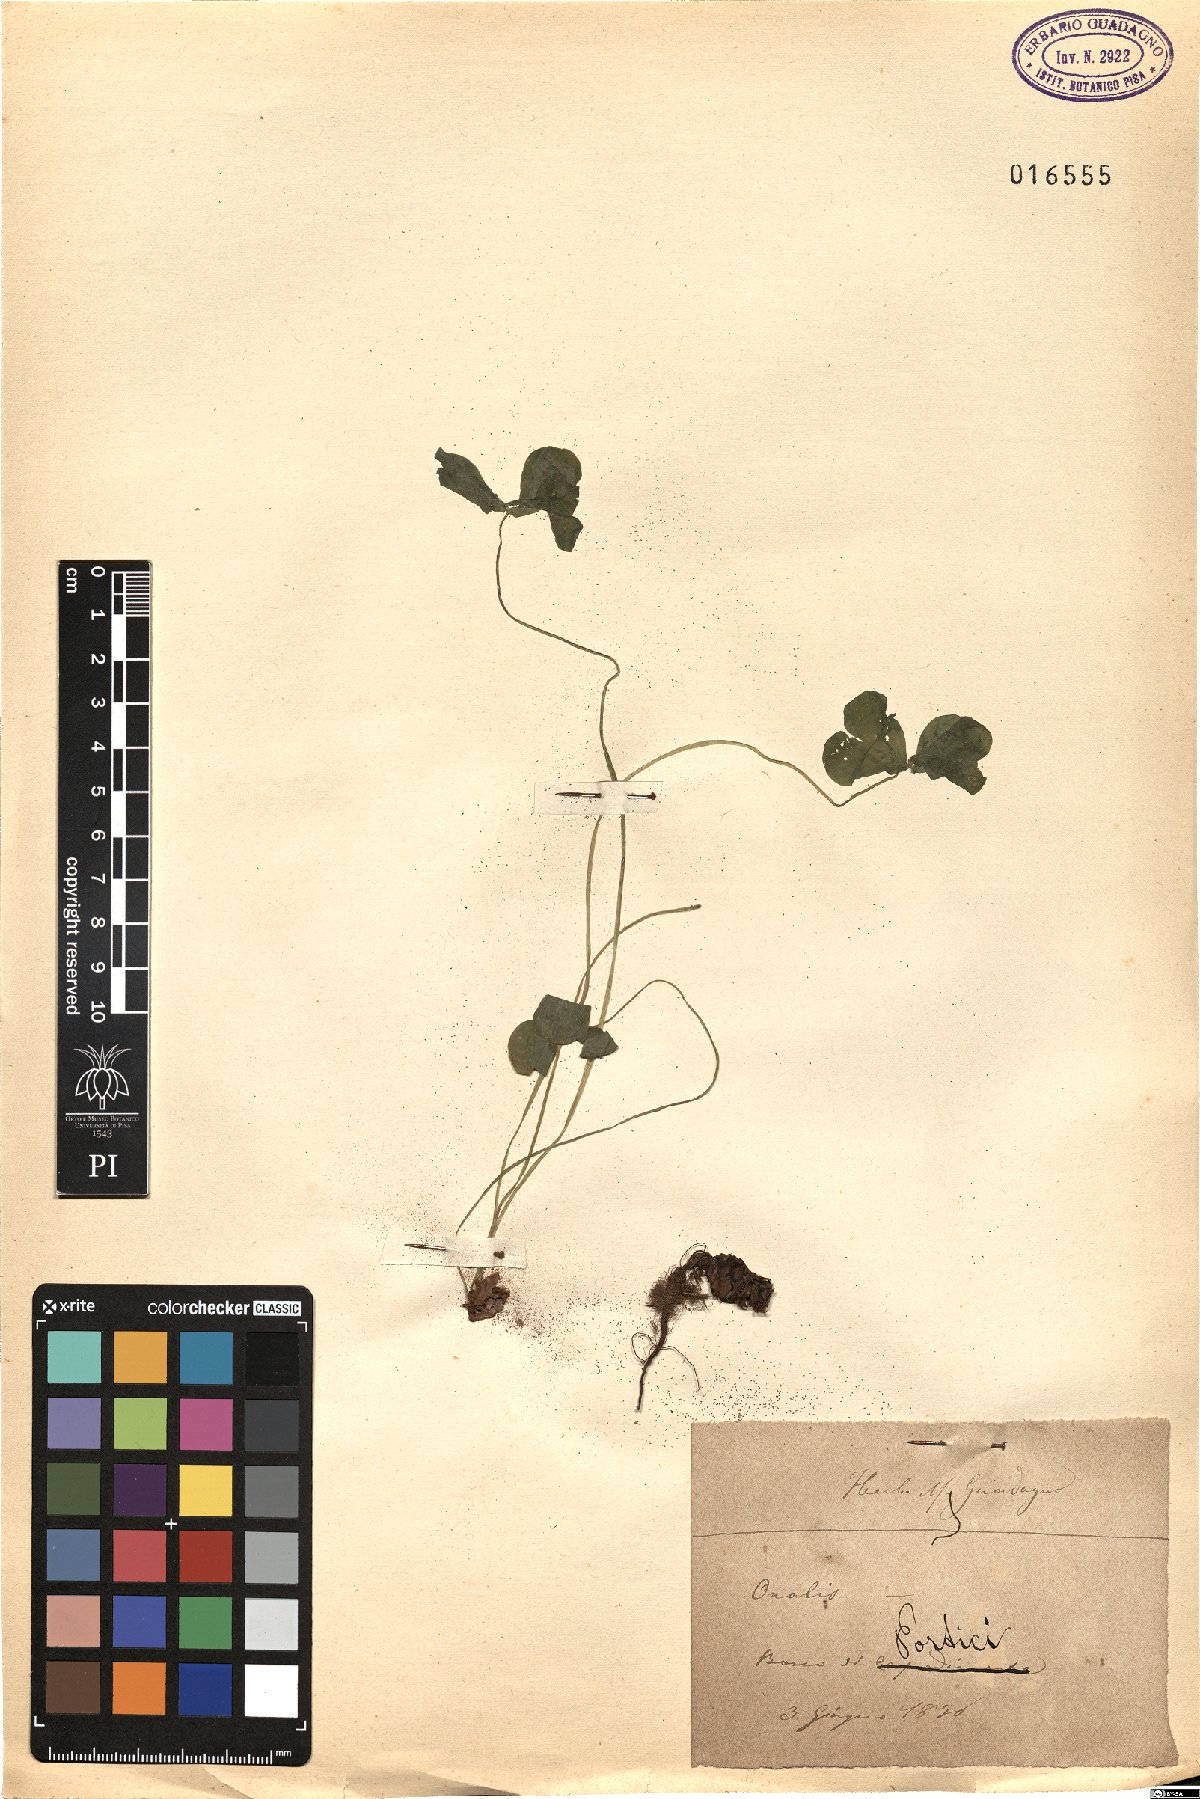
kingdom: Plantae
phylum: Tracheophyta
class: Magnoliopsida
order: Oxalidales
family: Oxalidaceae
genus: Oxalis
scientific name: Oxalis
